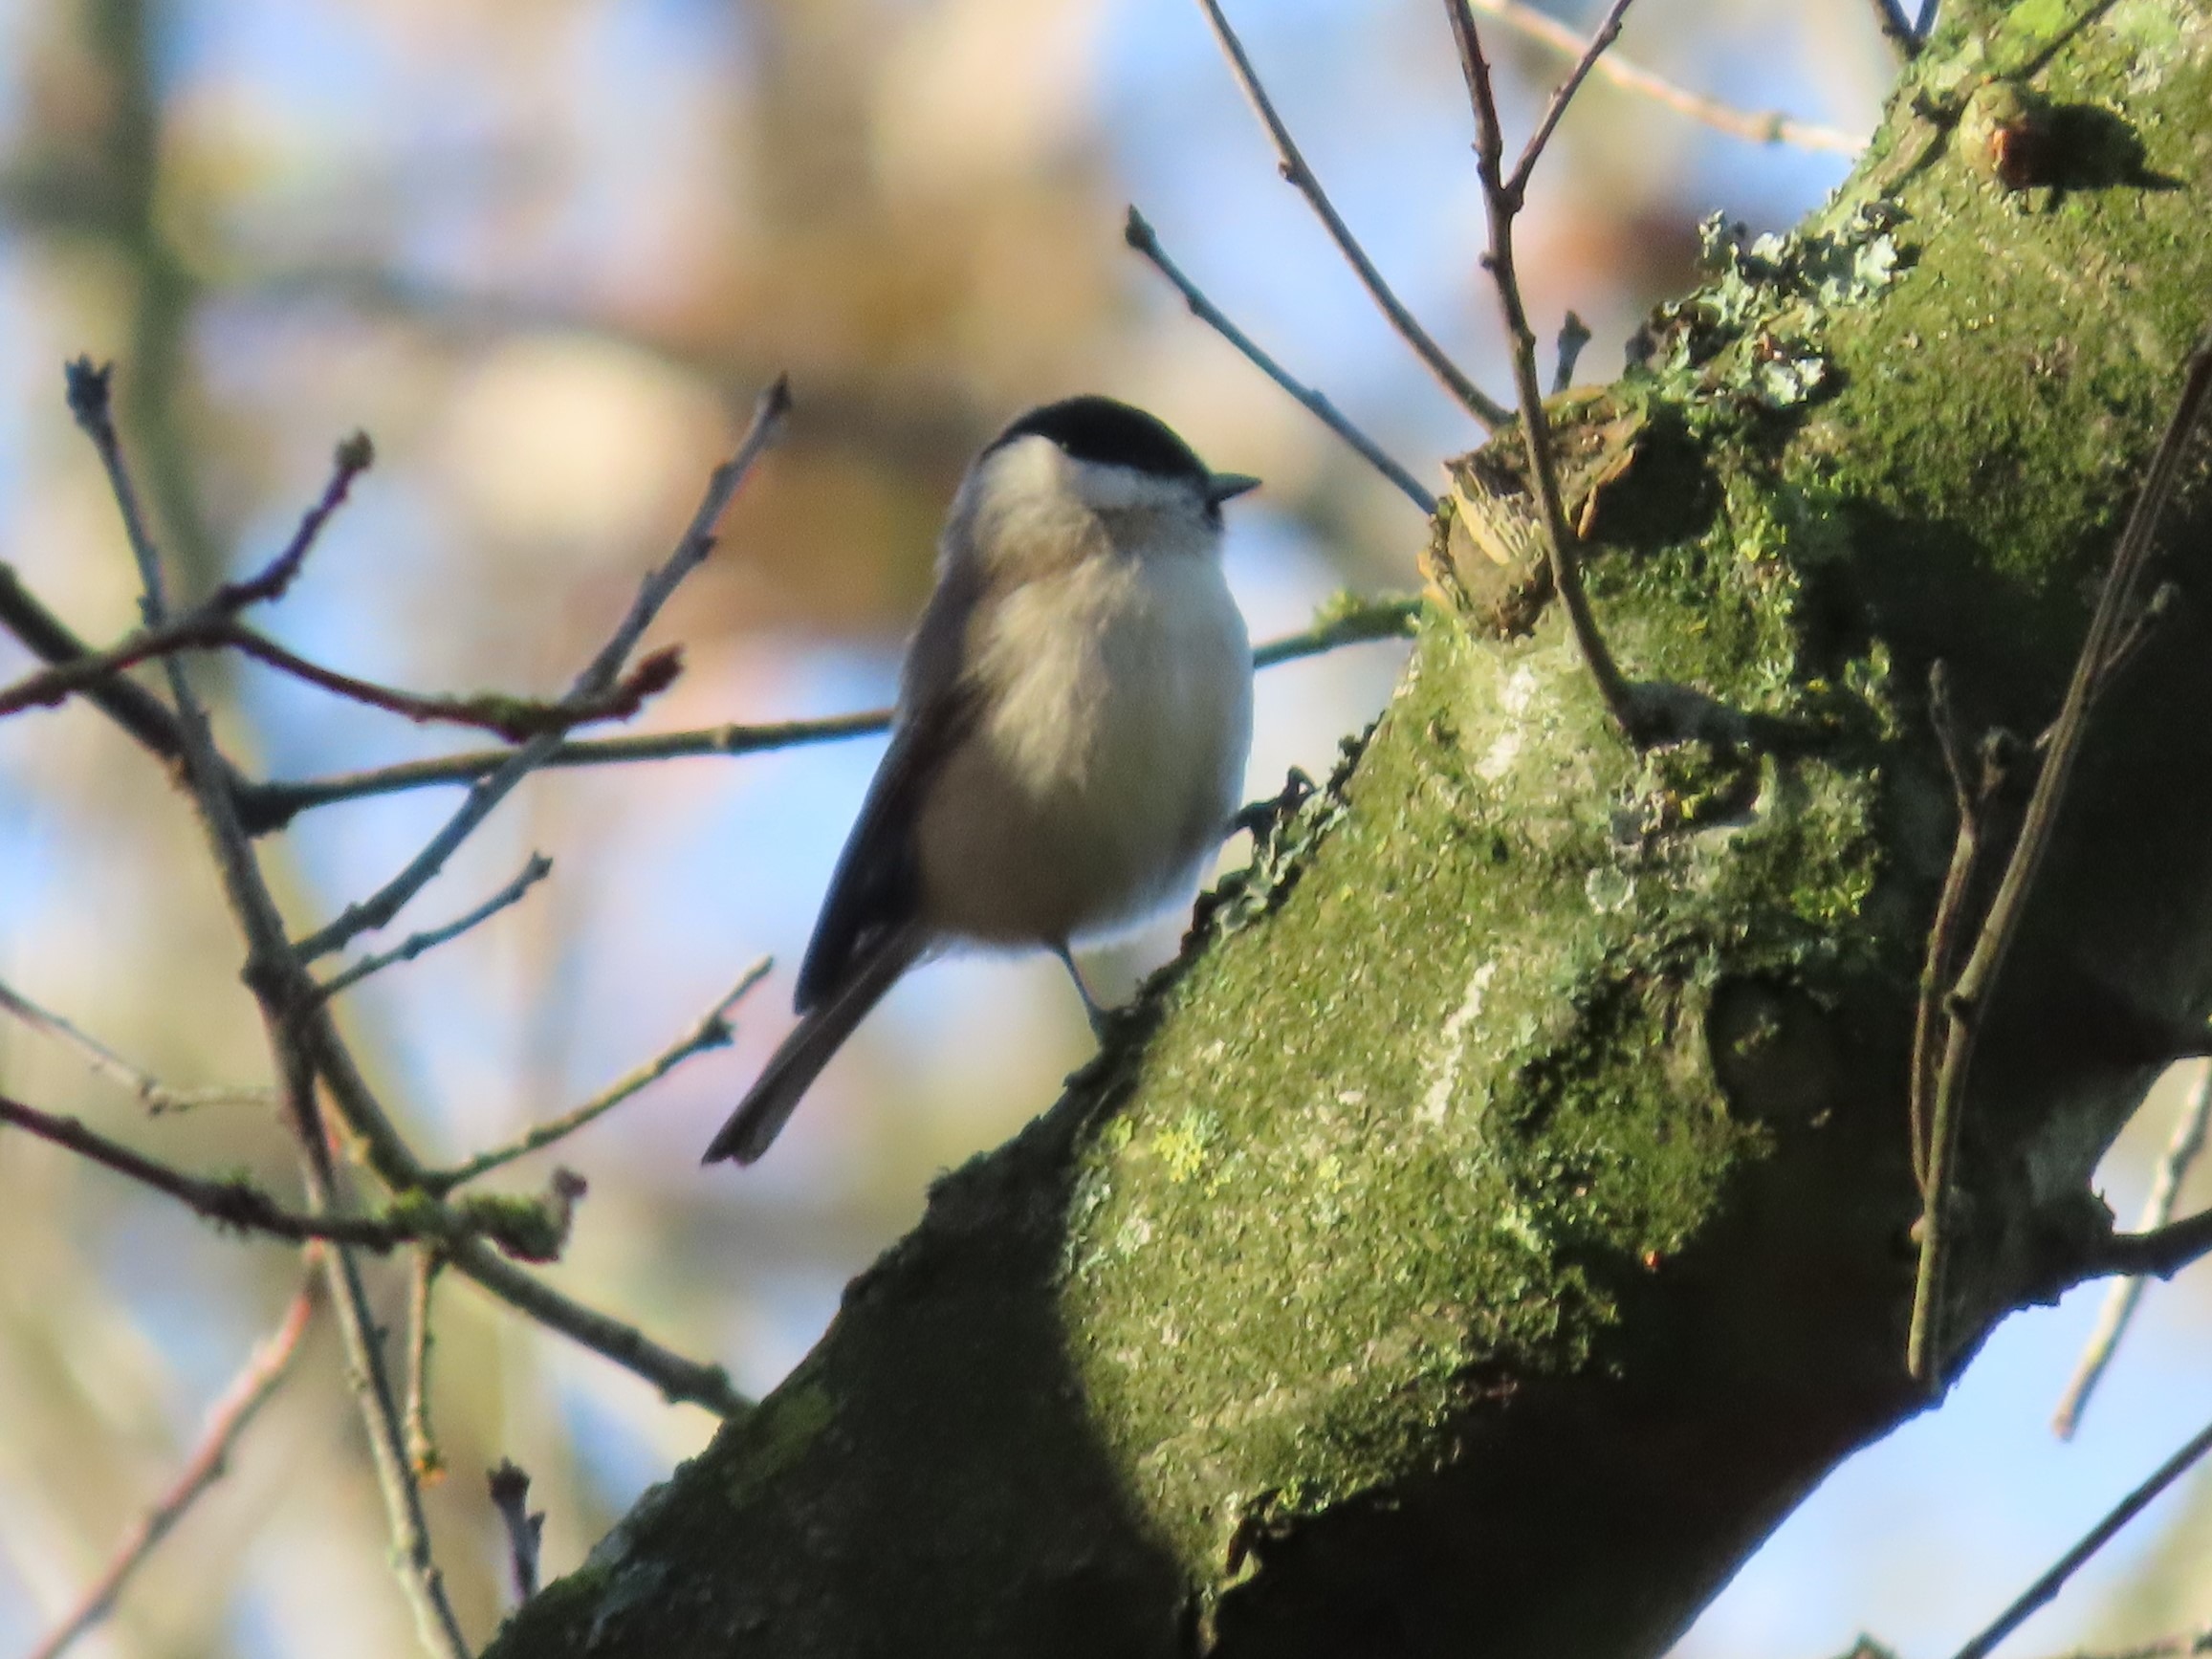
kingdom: Animalia
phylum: Chordata
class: Aves
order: Passeriformes
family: Paridae
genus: Poecile
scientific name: Poecile palustris
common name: Sumpmejse
